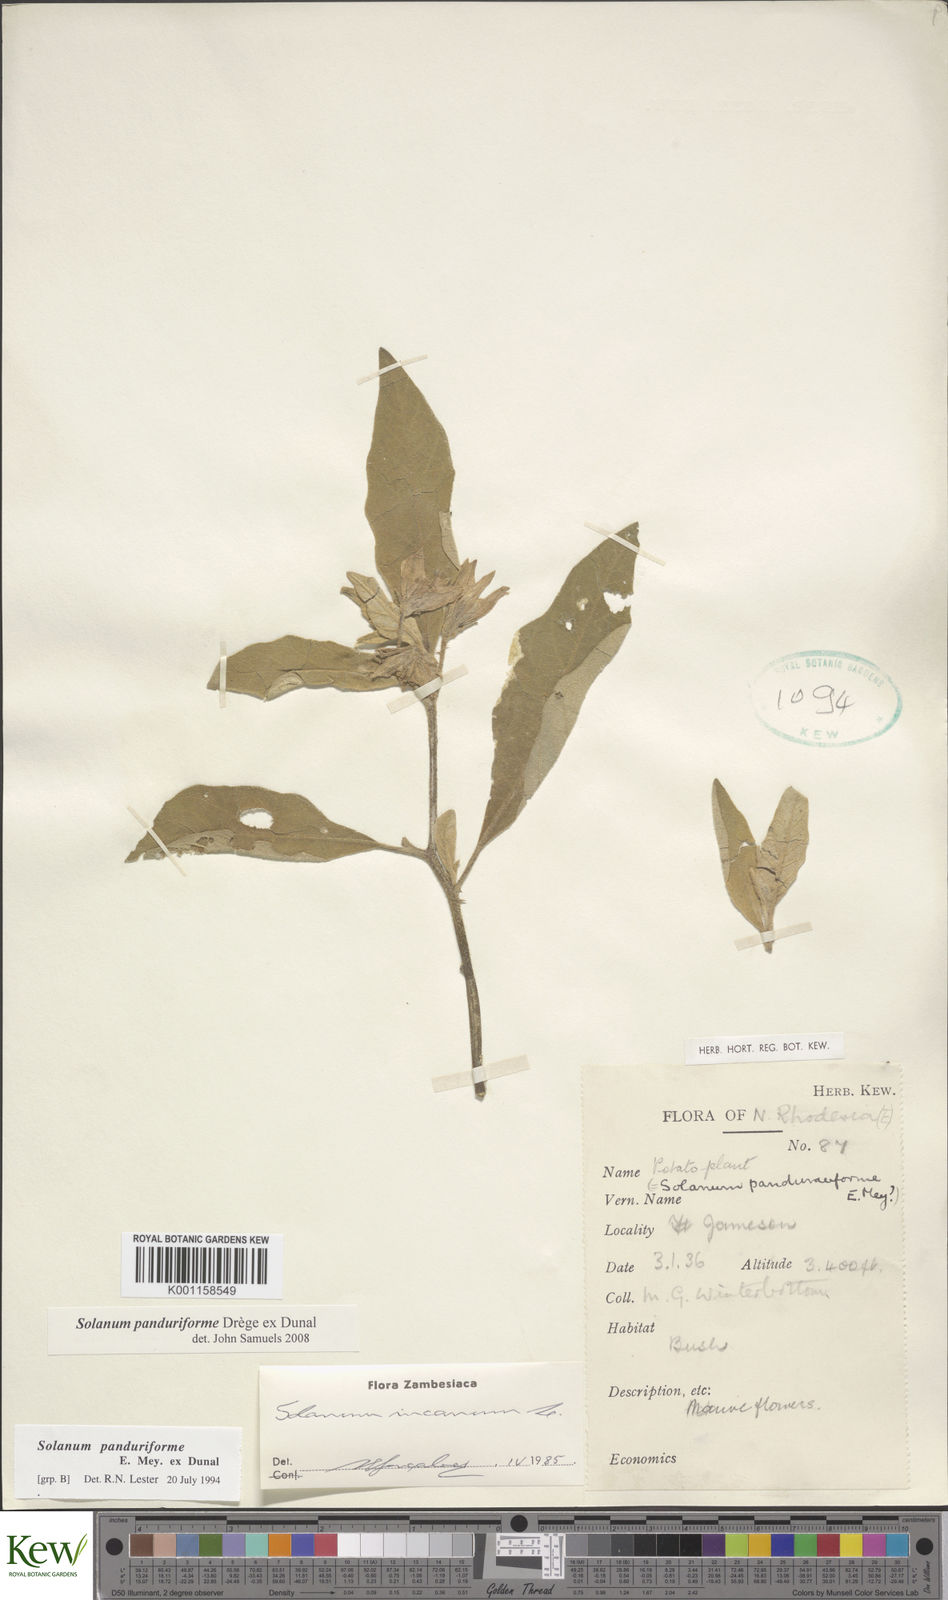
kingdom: Plantae
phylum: Tracheophyta
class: Magnoliopsida
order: Solanales
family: Solanaceae
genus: Solanum
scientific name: Solanum campylacanthum
